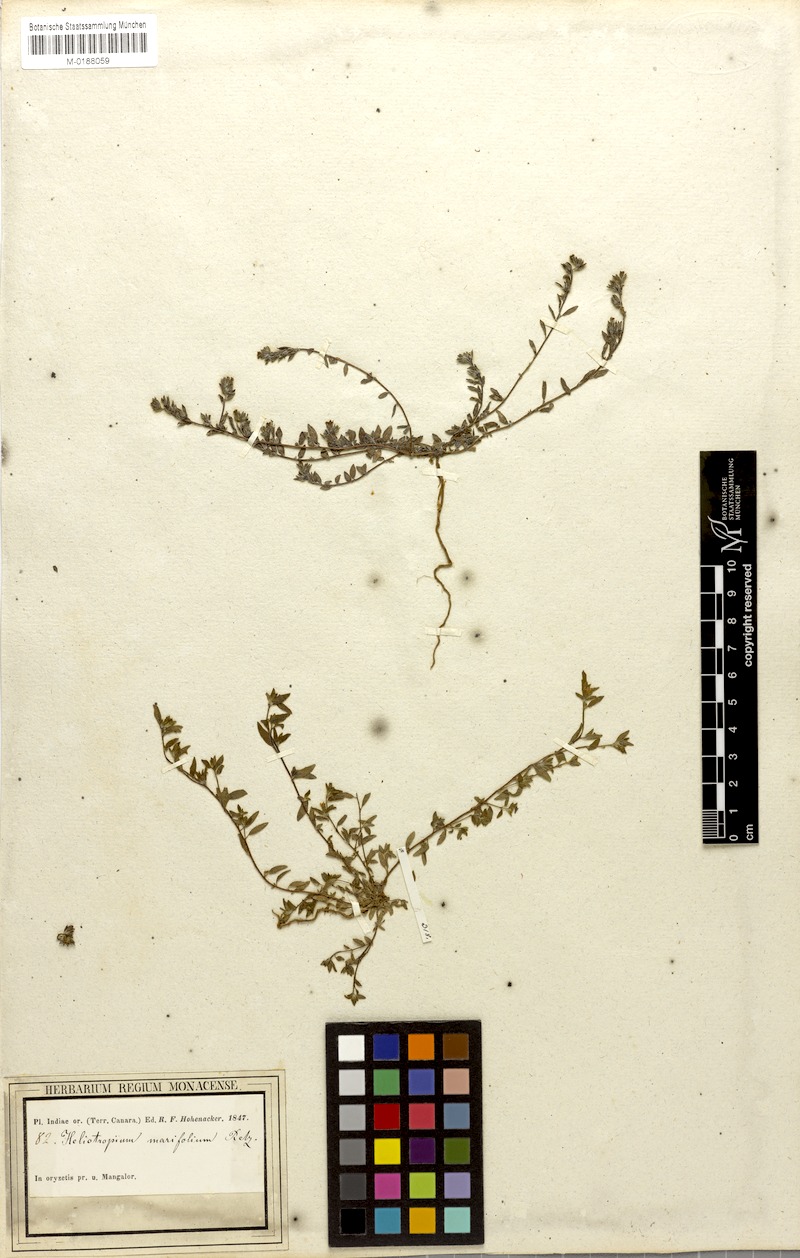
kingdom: Plantae
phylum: Tracheophyta
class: Magnoliopsida
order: Boraginales
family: Heliotropiaceae
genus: Euploca
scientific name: Euploca marifolia
